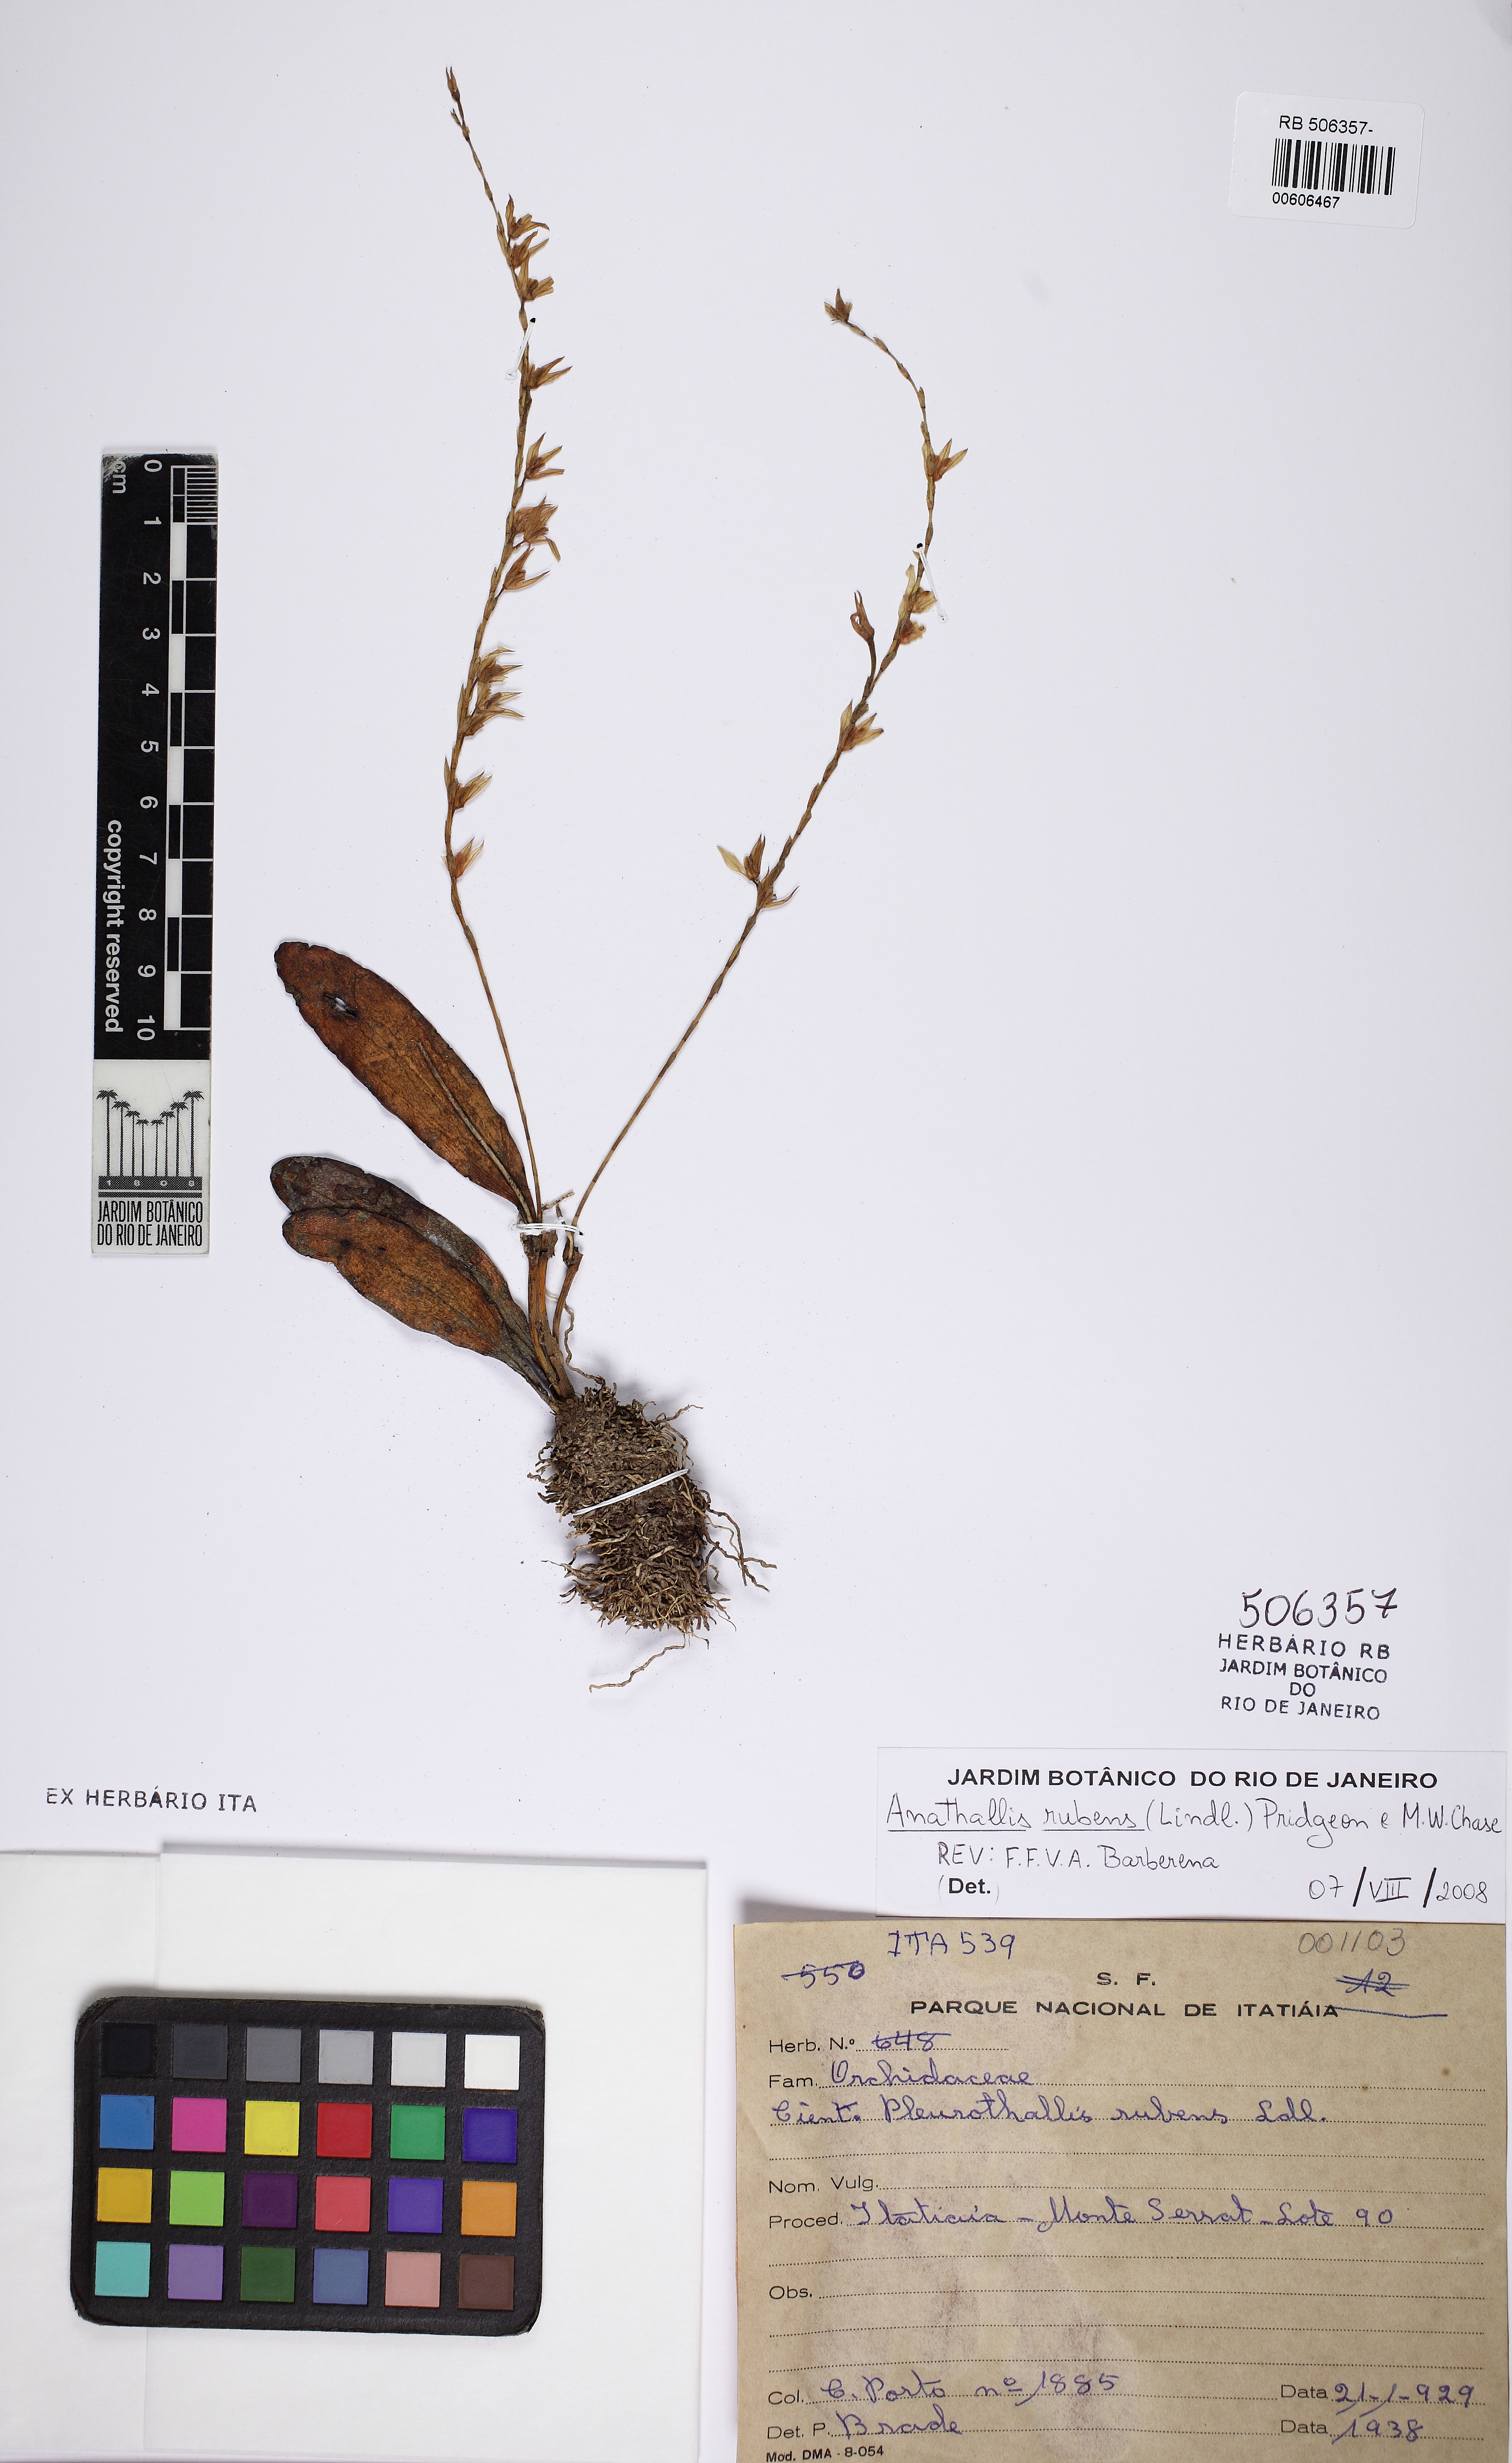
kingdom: Plantae
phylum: Tracheophyta
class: Liliopsida
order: Asparagales
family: Orchidaceae
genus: Stelis
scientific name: Stelis montserratii
